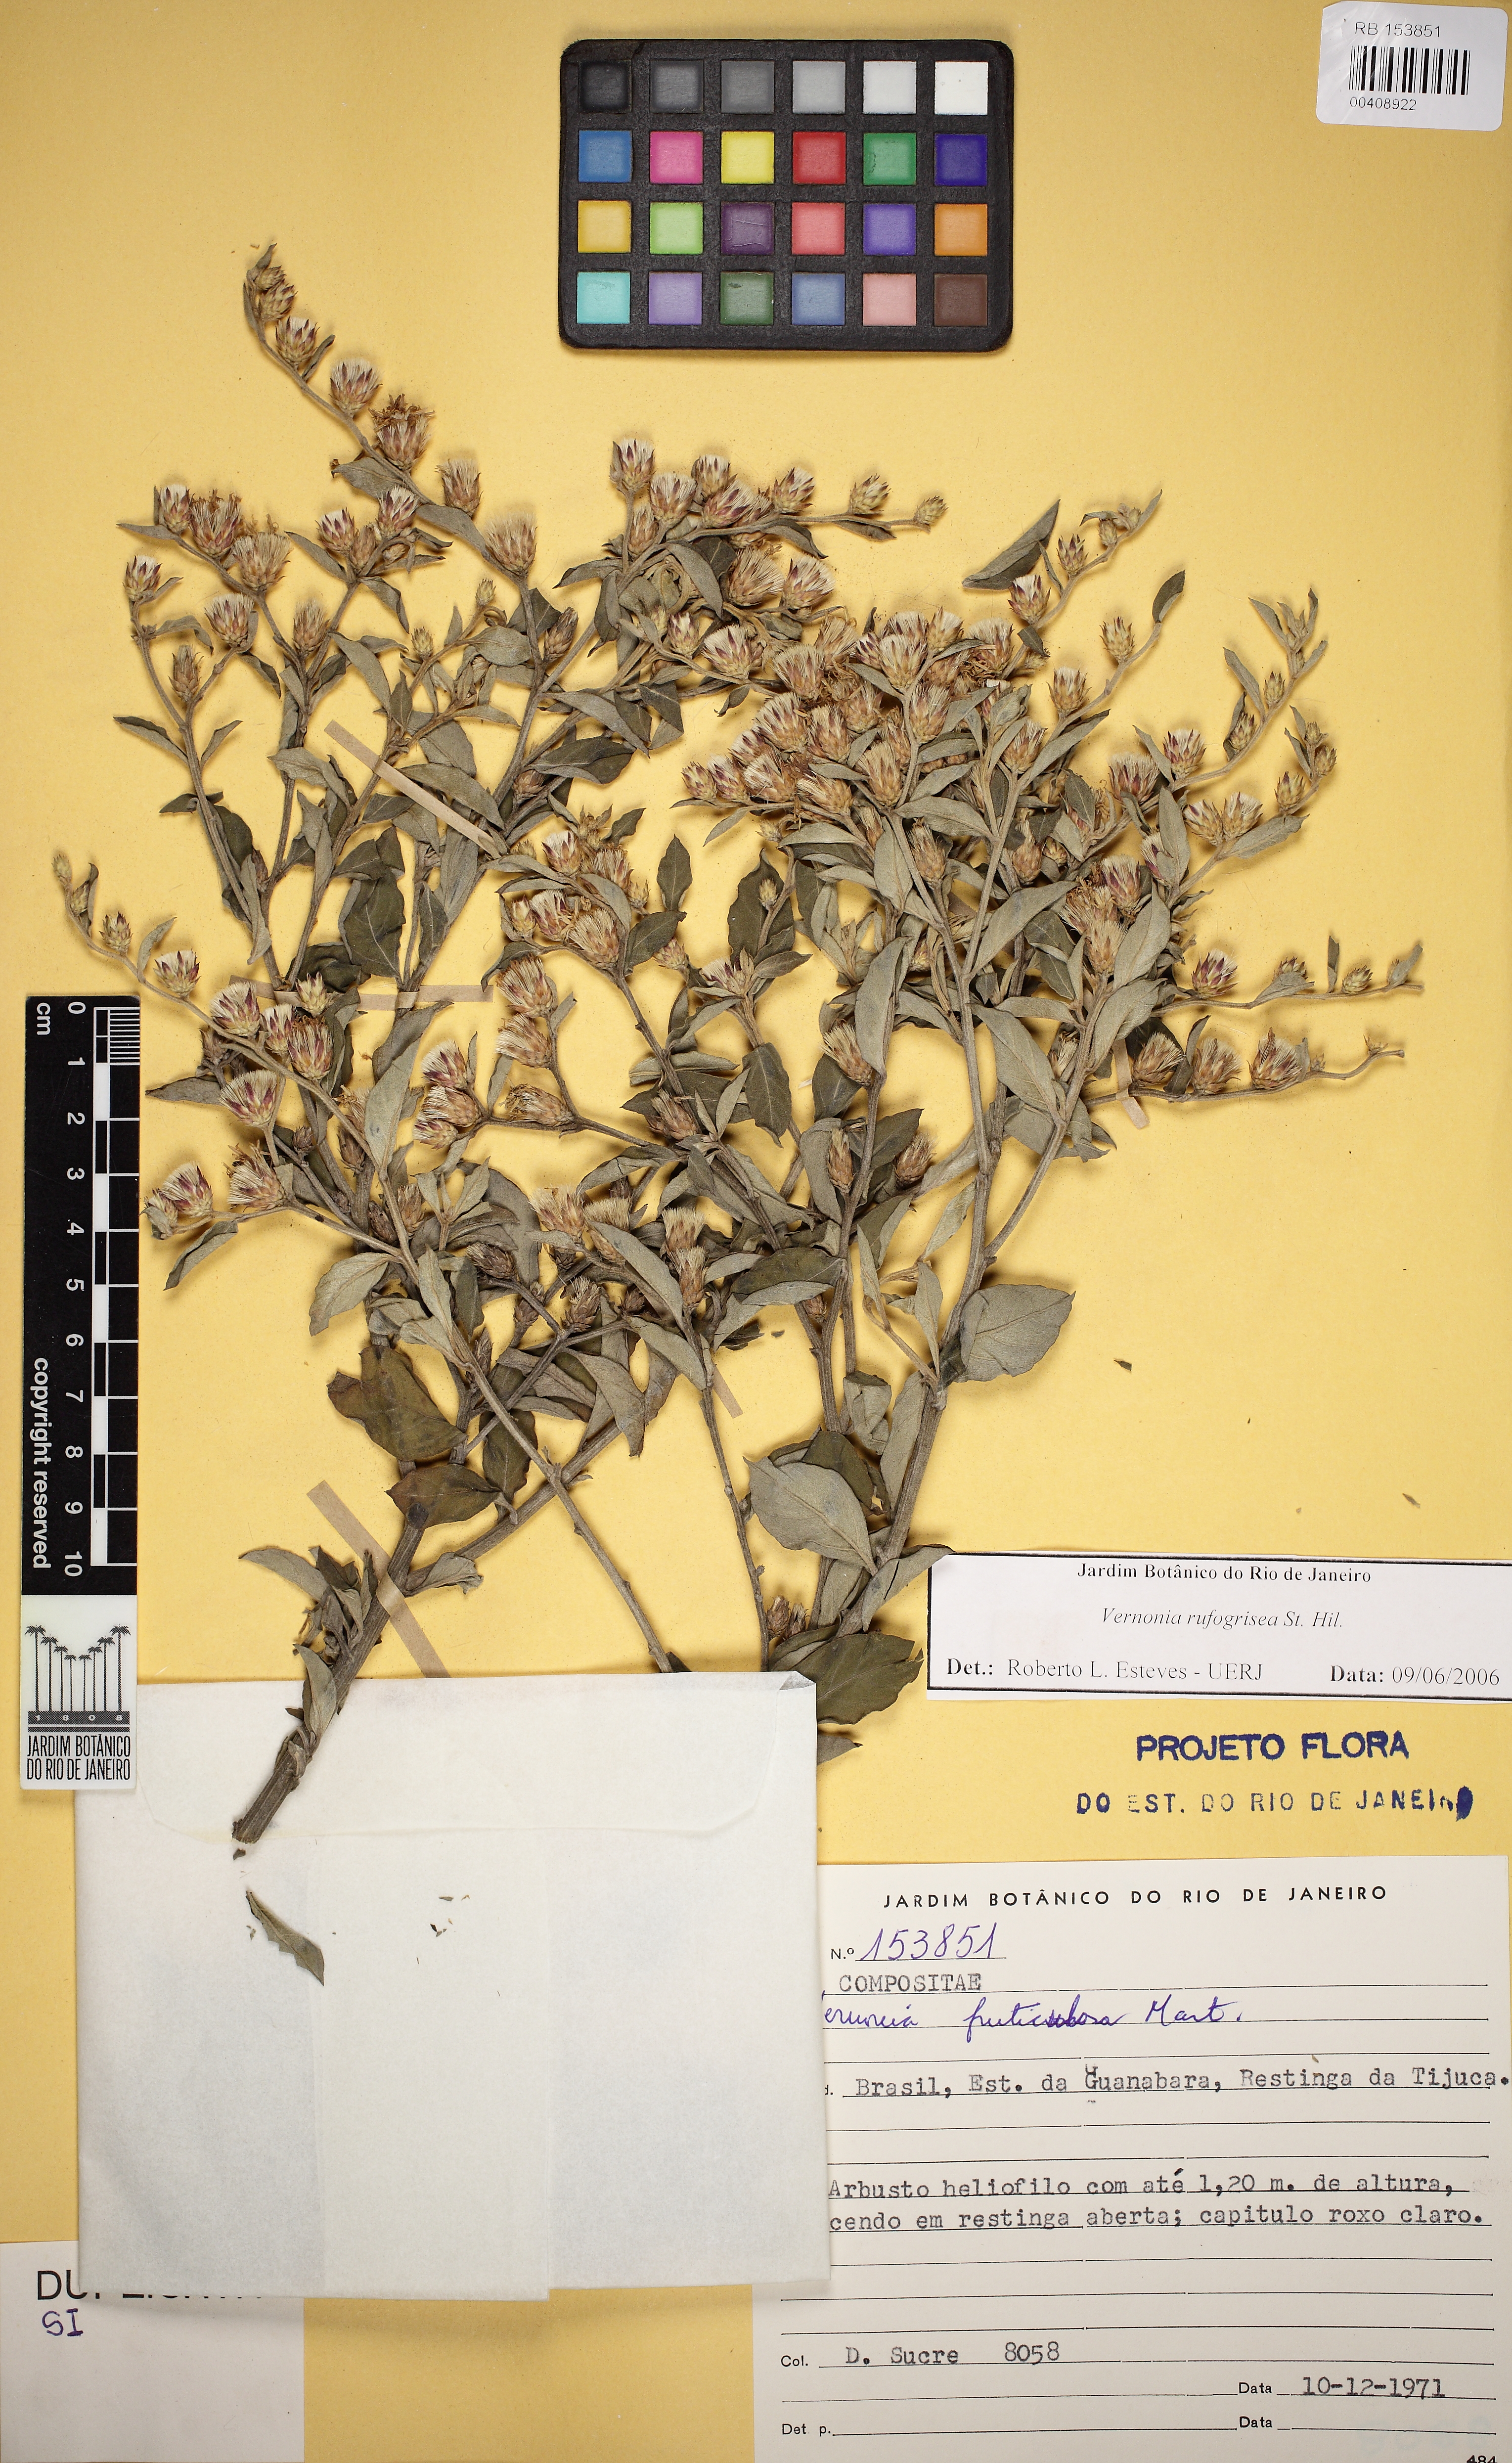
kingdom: Plantae
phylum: Tracheophyta
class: Magnoliopsida
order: Asterales
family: Asteraceae
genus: Lepidaploa
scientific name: Lepidaploa rufogrisea
